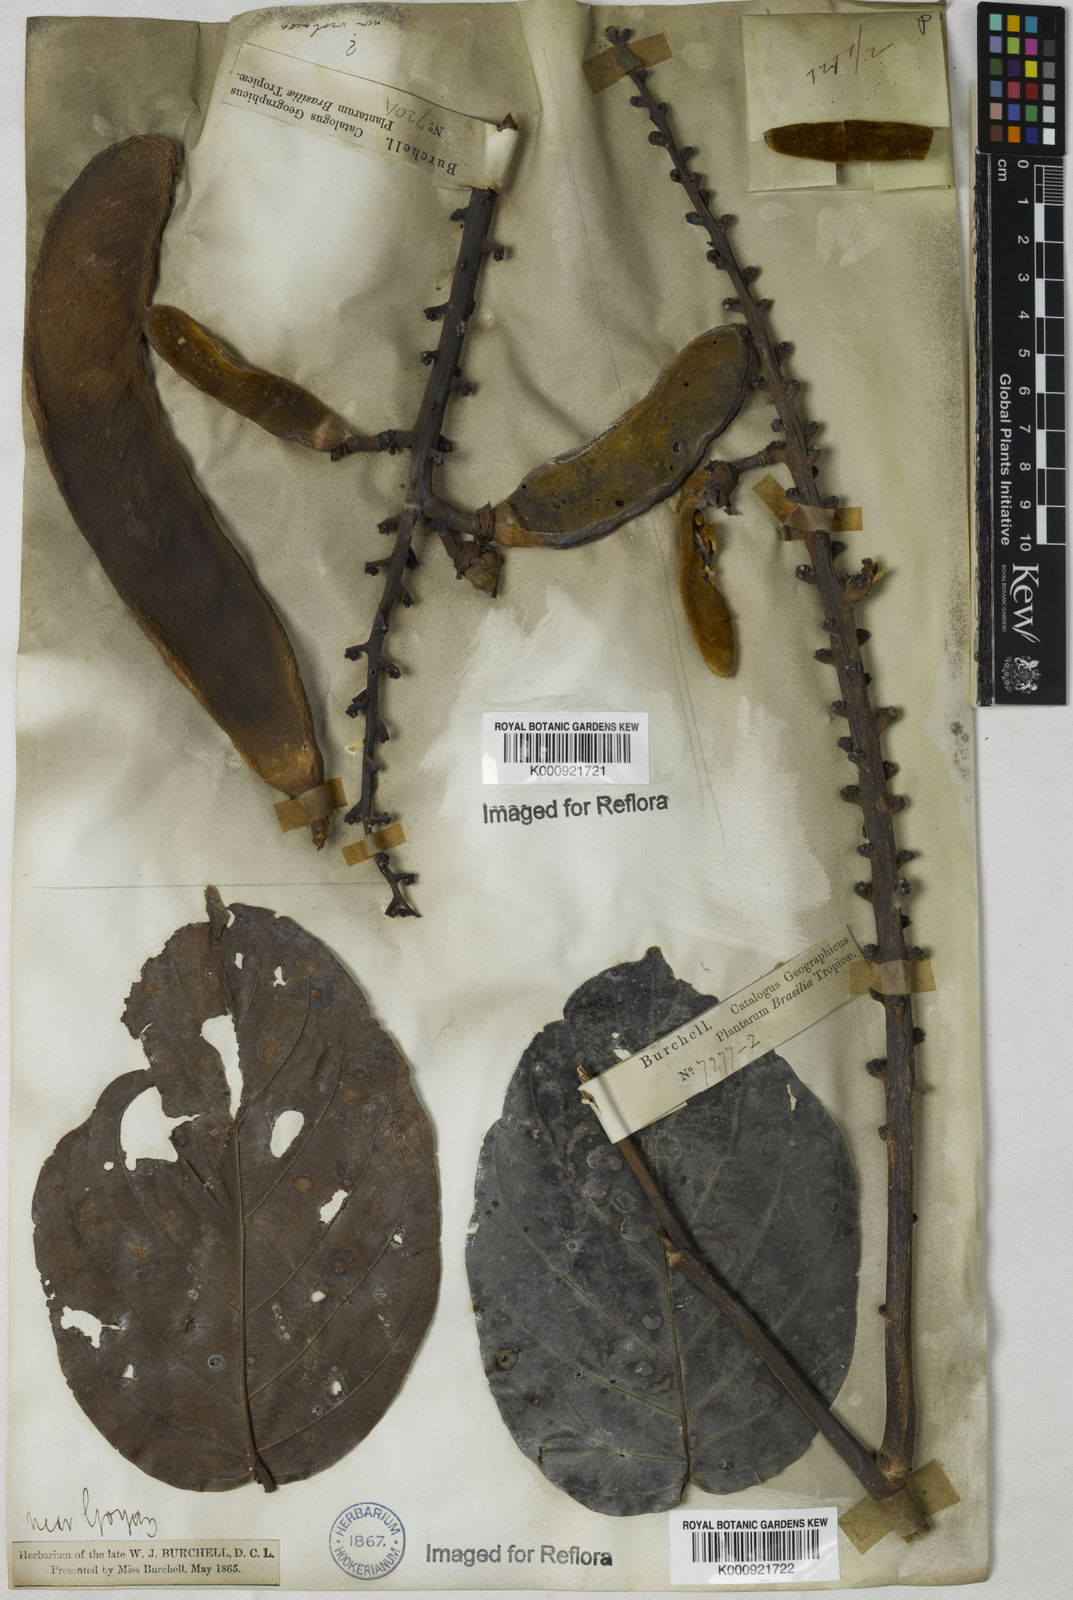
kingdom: Plantae
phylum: Tracheophyta
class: Magnoliopsida
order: Fabales
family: Fabaceae
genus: Macropsychanthus
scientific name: Macropsychanthus violaceus
